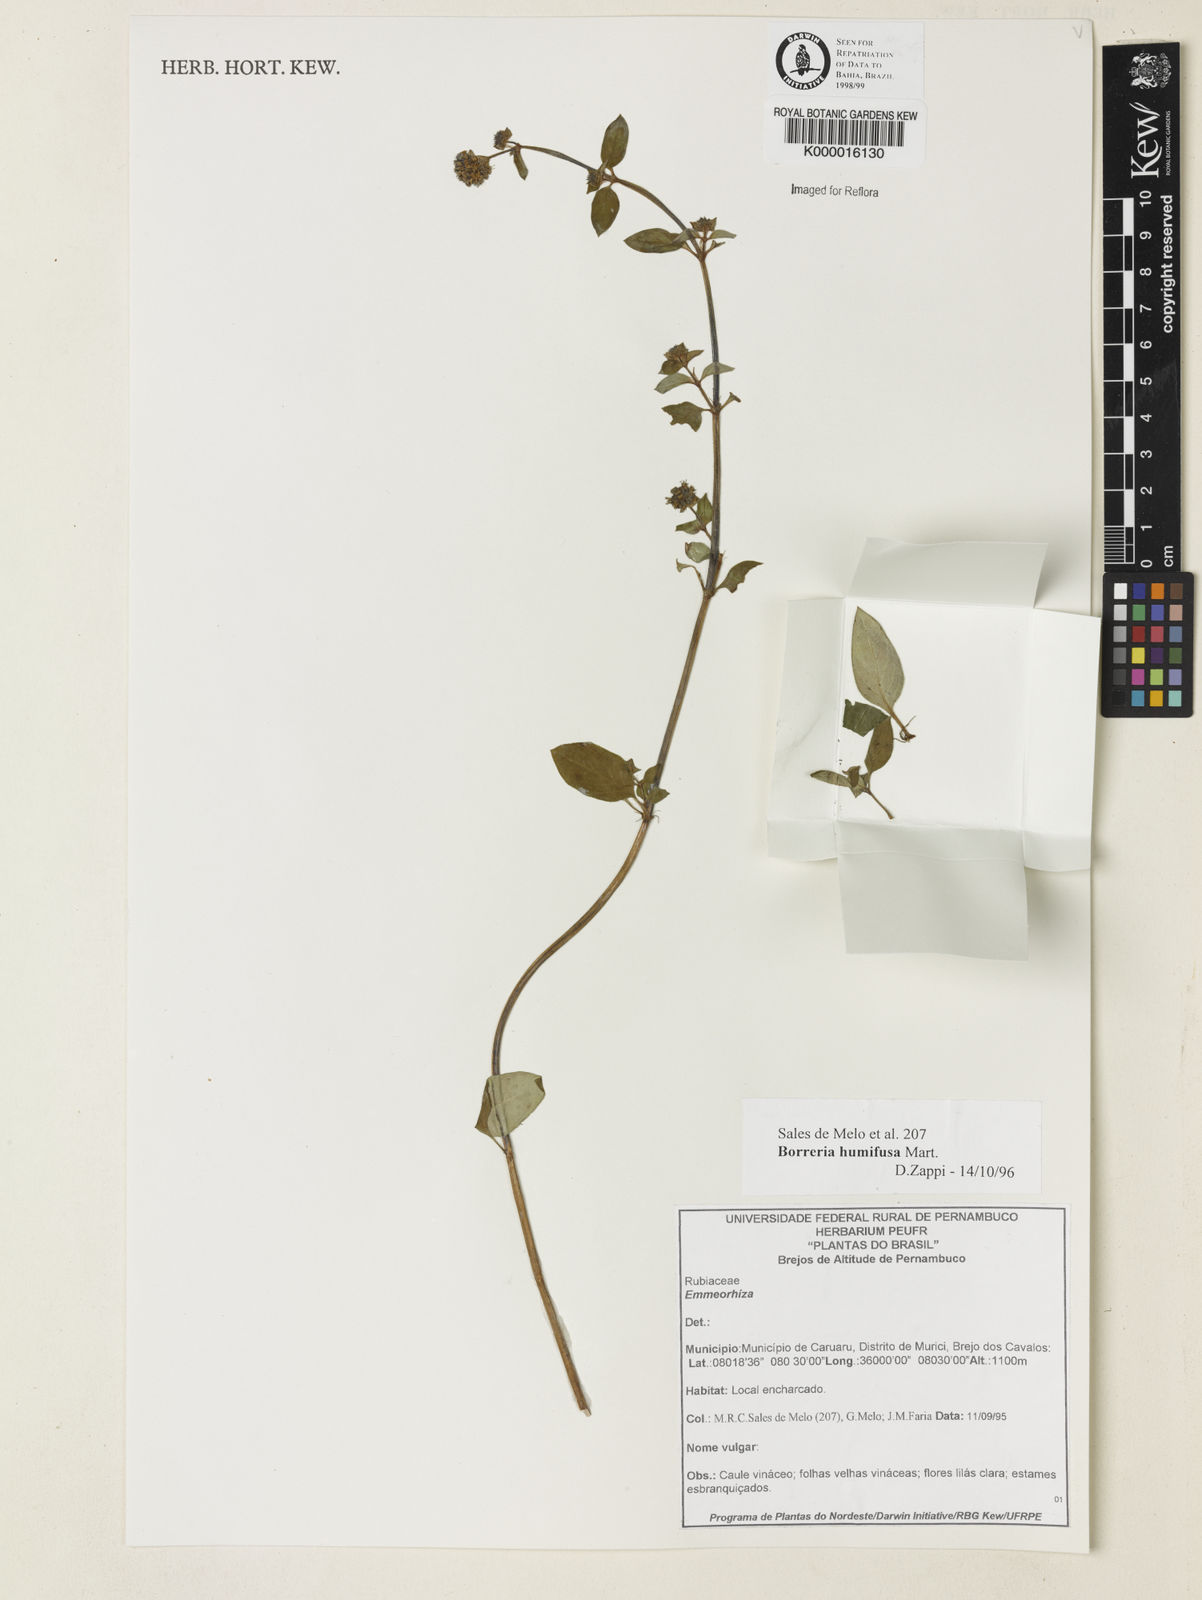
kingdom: Plantae
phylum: Tracheophyta
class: Magnoliopsida
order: Gentianales
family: Rubiaceae
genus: Spermacoce
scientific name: Spermacoce scabiosoides
